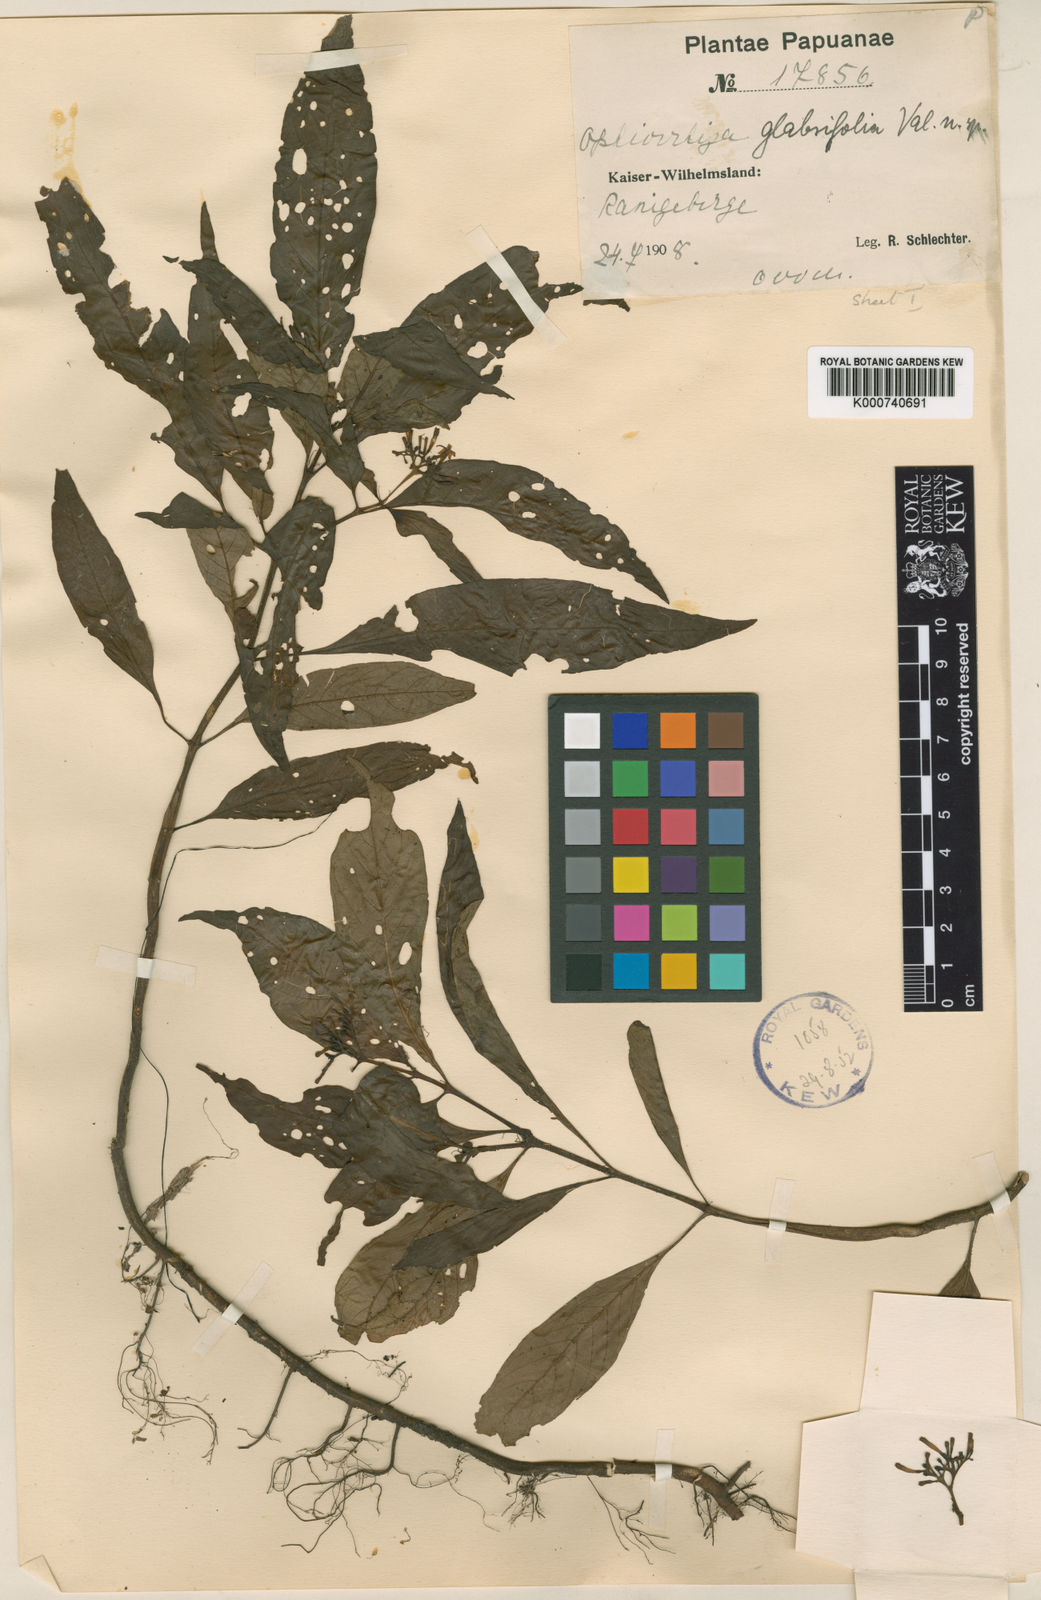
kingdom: Plantae
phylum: Tracheophyta
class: Magnoliopsida
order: Gentianales
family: Rubiaceae
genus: Ophiorrhiza
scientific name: Ophiorrhiza glabrifolia
